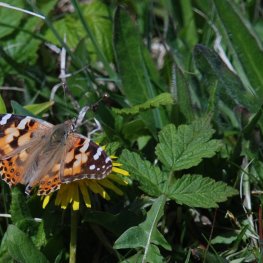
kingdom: Animalia
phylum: Arthropoda
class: Insecta
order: Lepidoptera
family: Nymphalidae
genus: Vanessa
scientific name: Vanessa cardui
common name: Painted Lady
